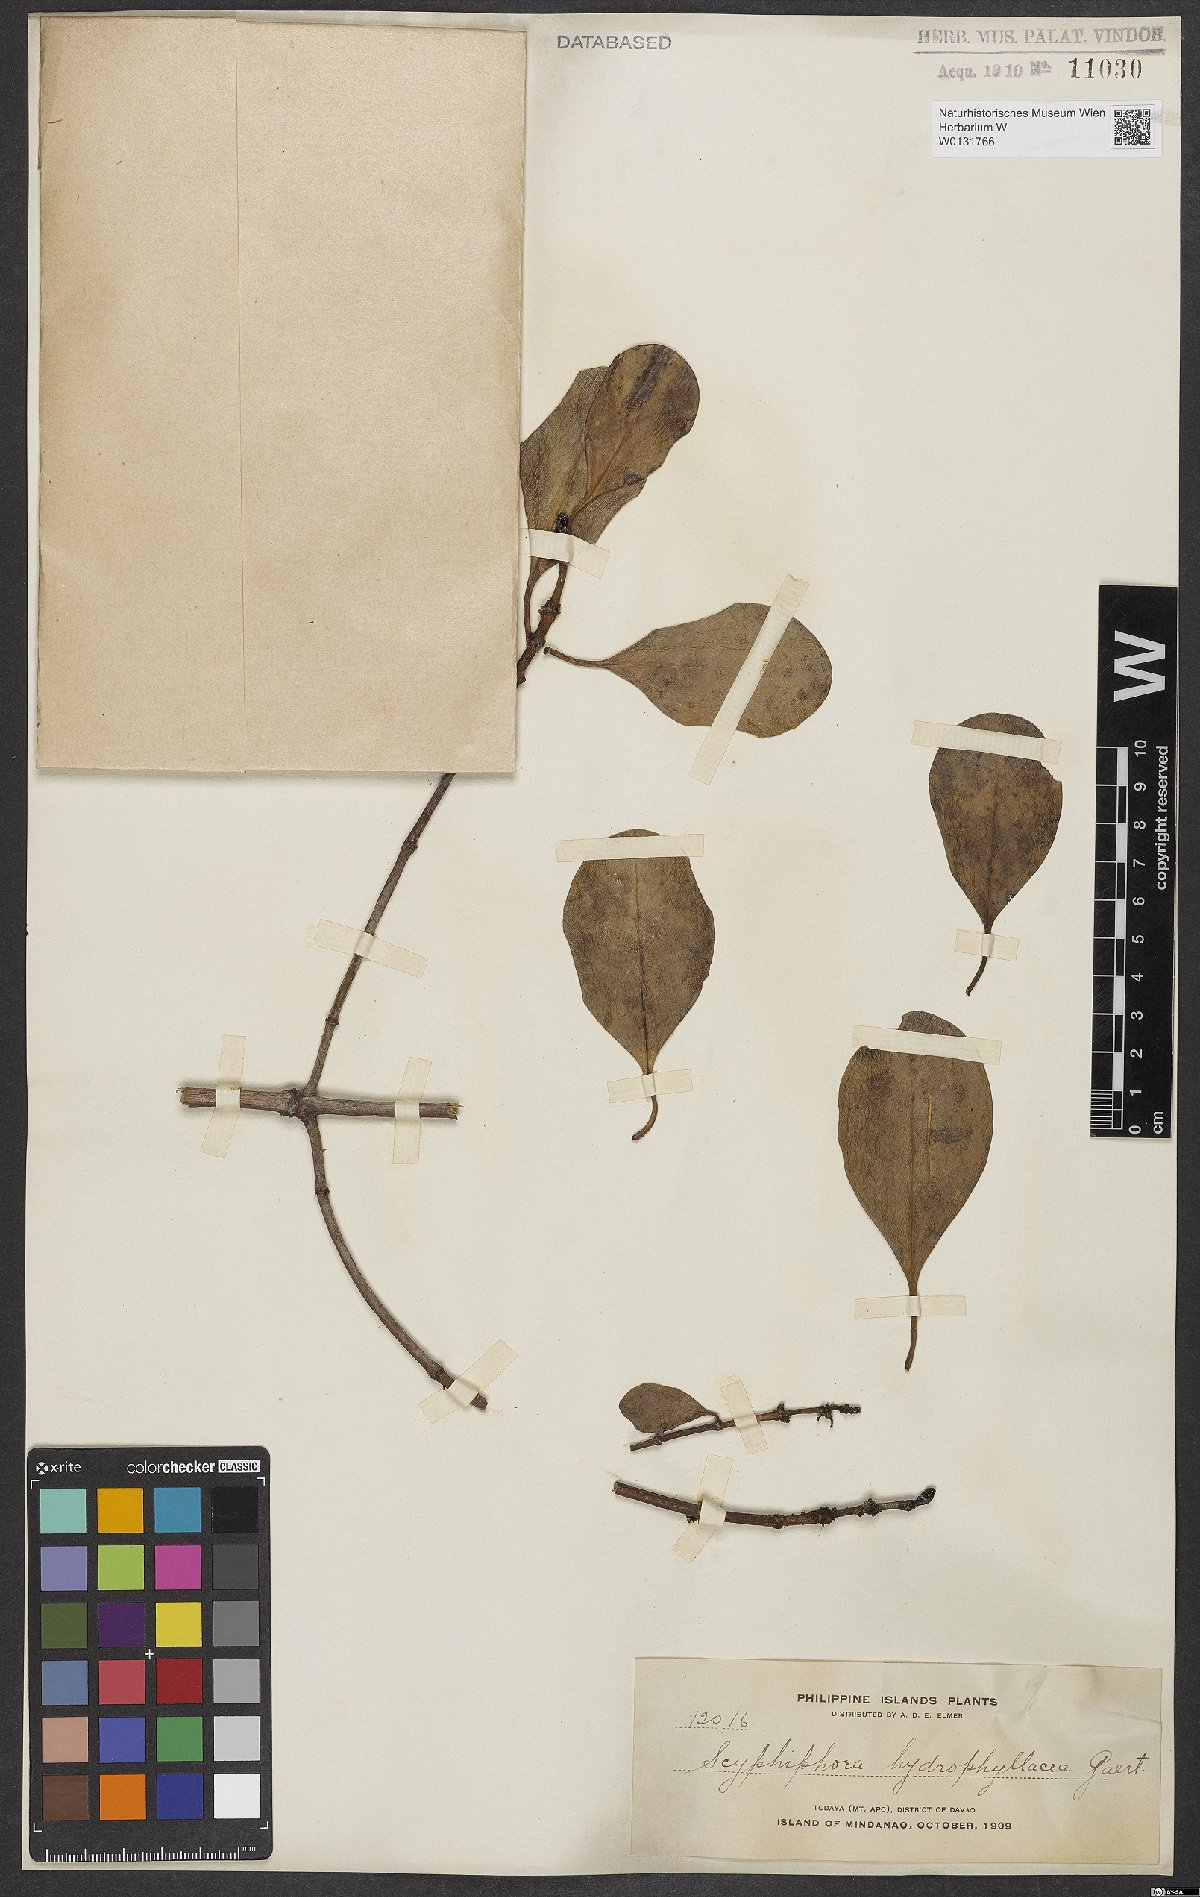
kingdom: Plantae
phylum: Tracheophyta
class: Magnoliopsida
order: Gentianales
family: Rubiaceae
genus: Scyphiphora
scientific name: Scyphiphora hydrophylacea
